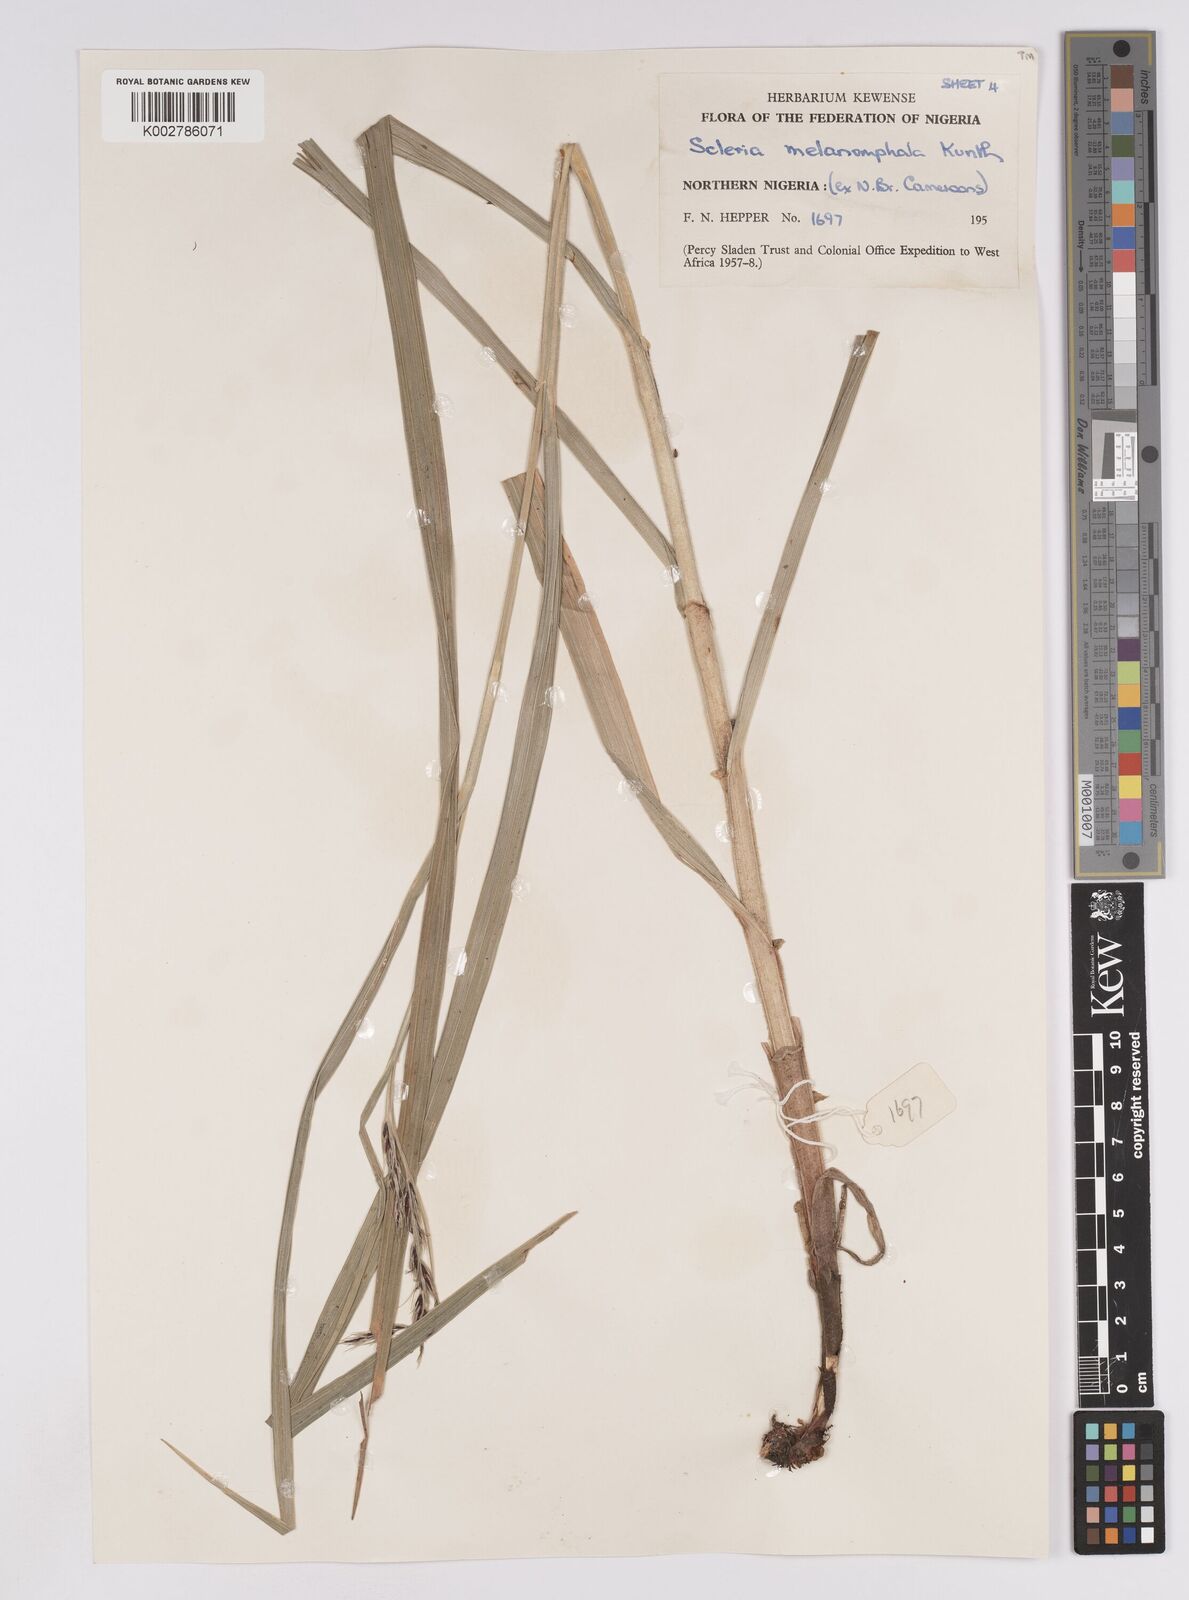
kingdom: Plantae
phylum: Tracheophyta
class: Liliopsida
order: Poales
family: Cyperaceae
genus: Scleria
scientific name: Scleria melanomphala
